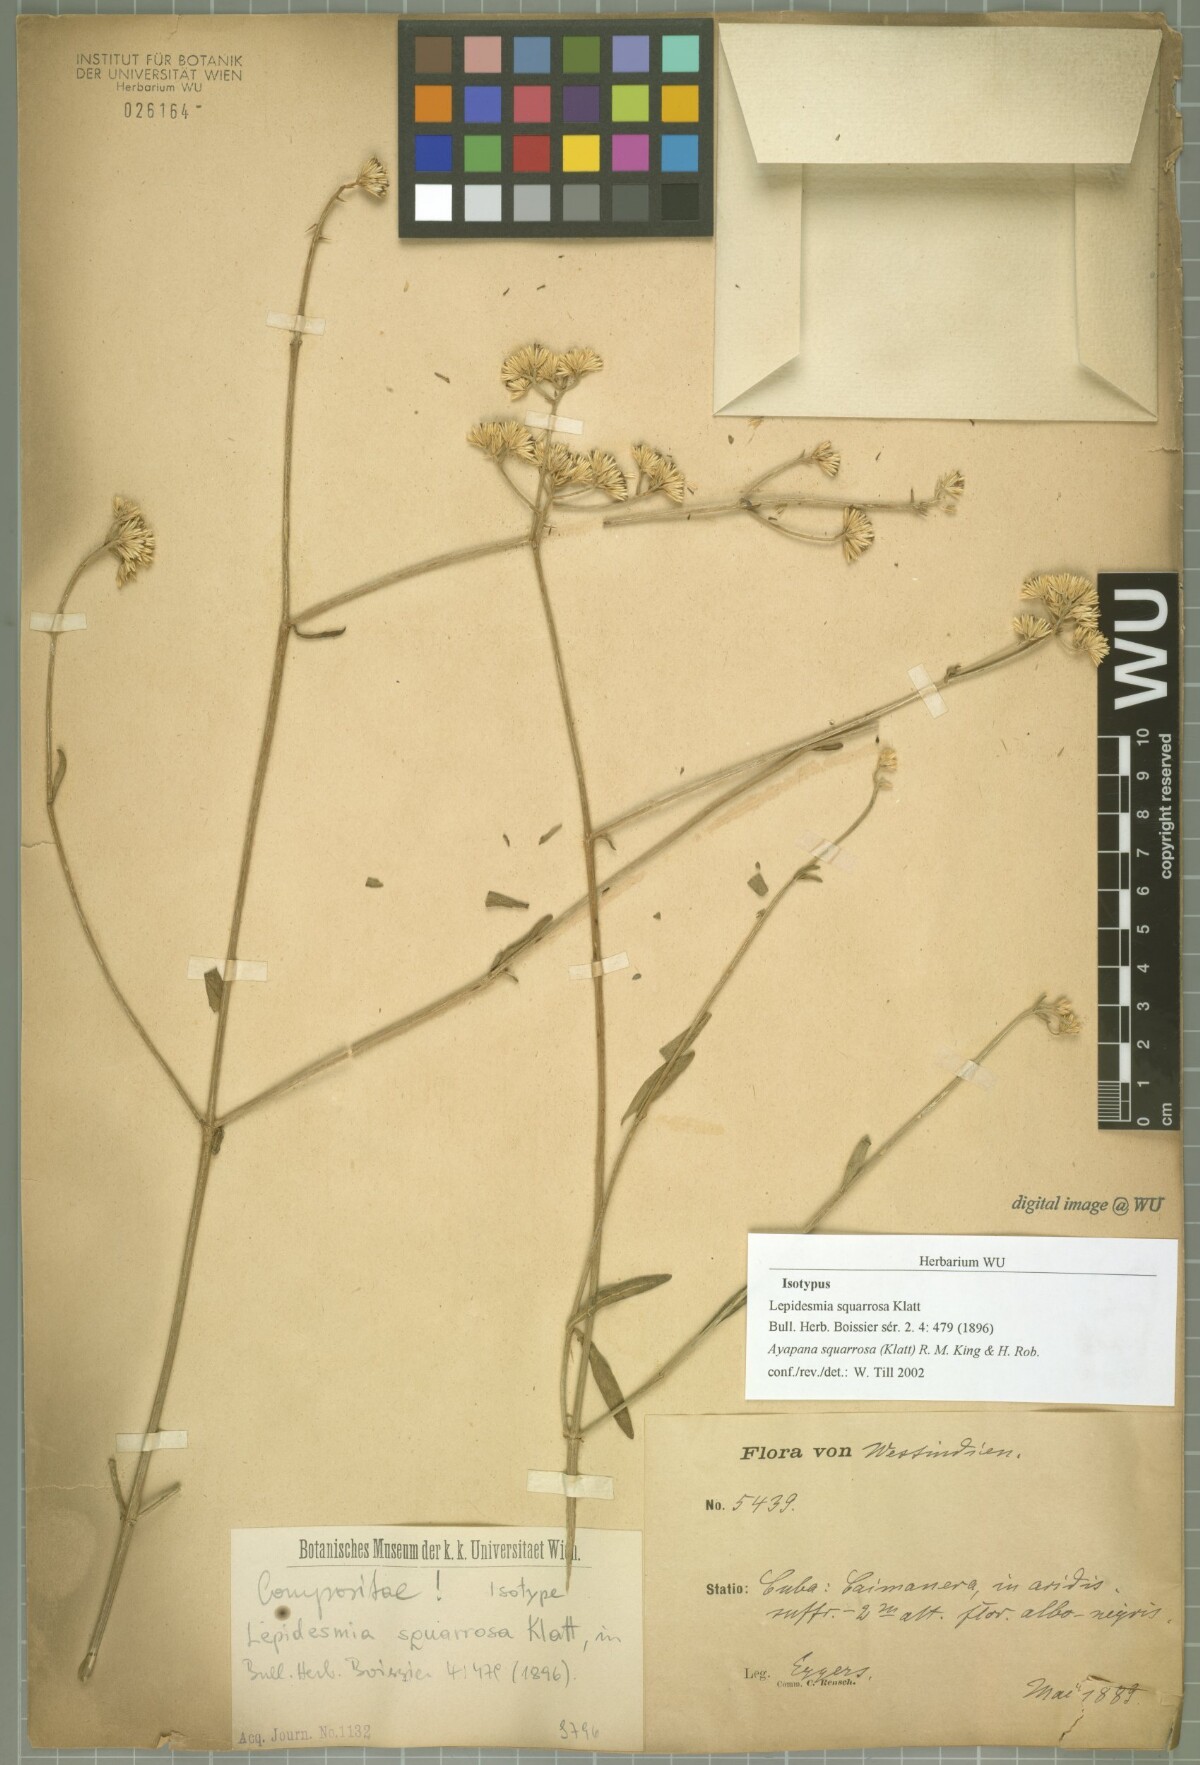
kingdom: Plantae
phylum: Tracheophyta
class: Magnoliopsida
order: Asterales
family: Asteraceae
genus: Lepidesmia
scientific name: Lepidesmia squarrosa
